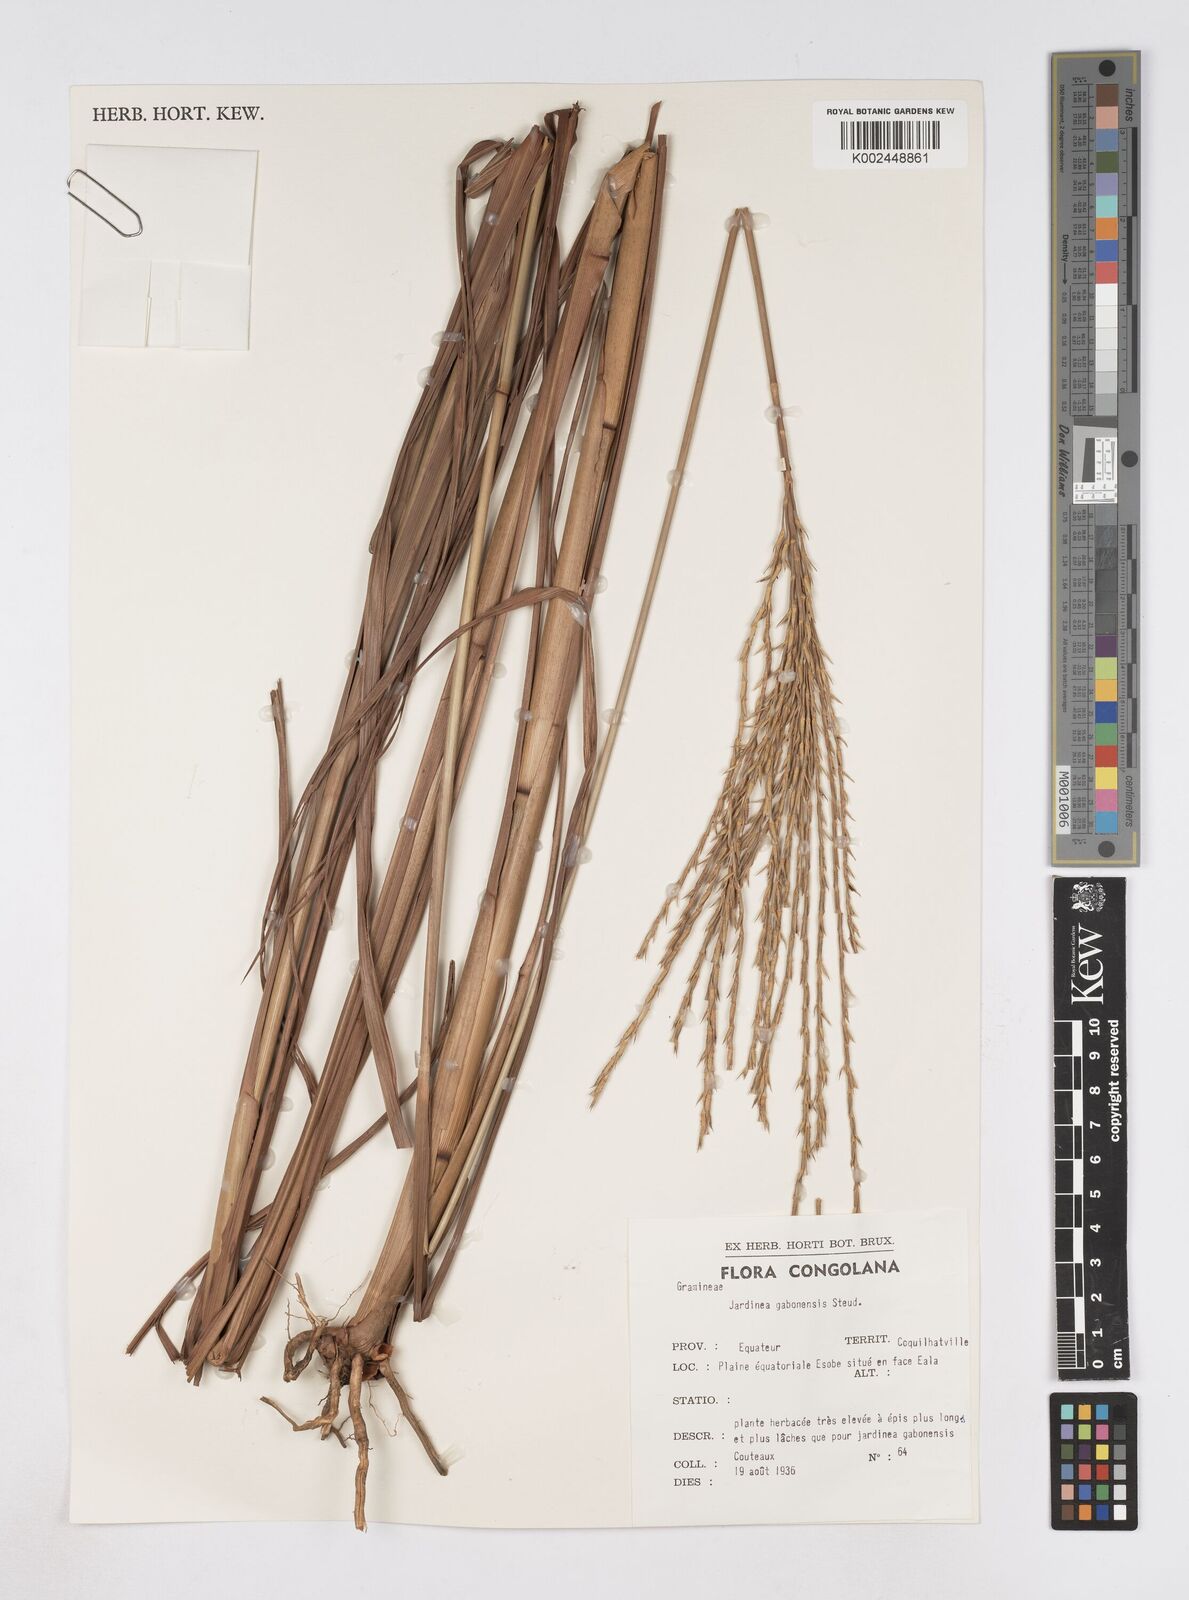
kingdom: Plantae
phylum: Tracheophyta
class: Liliopsida
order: Poales
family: Poaceae
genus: Phacelurus
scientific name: Phacelurus gabonensis
